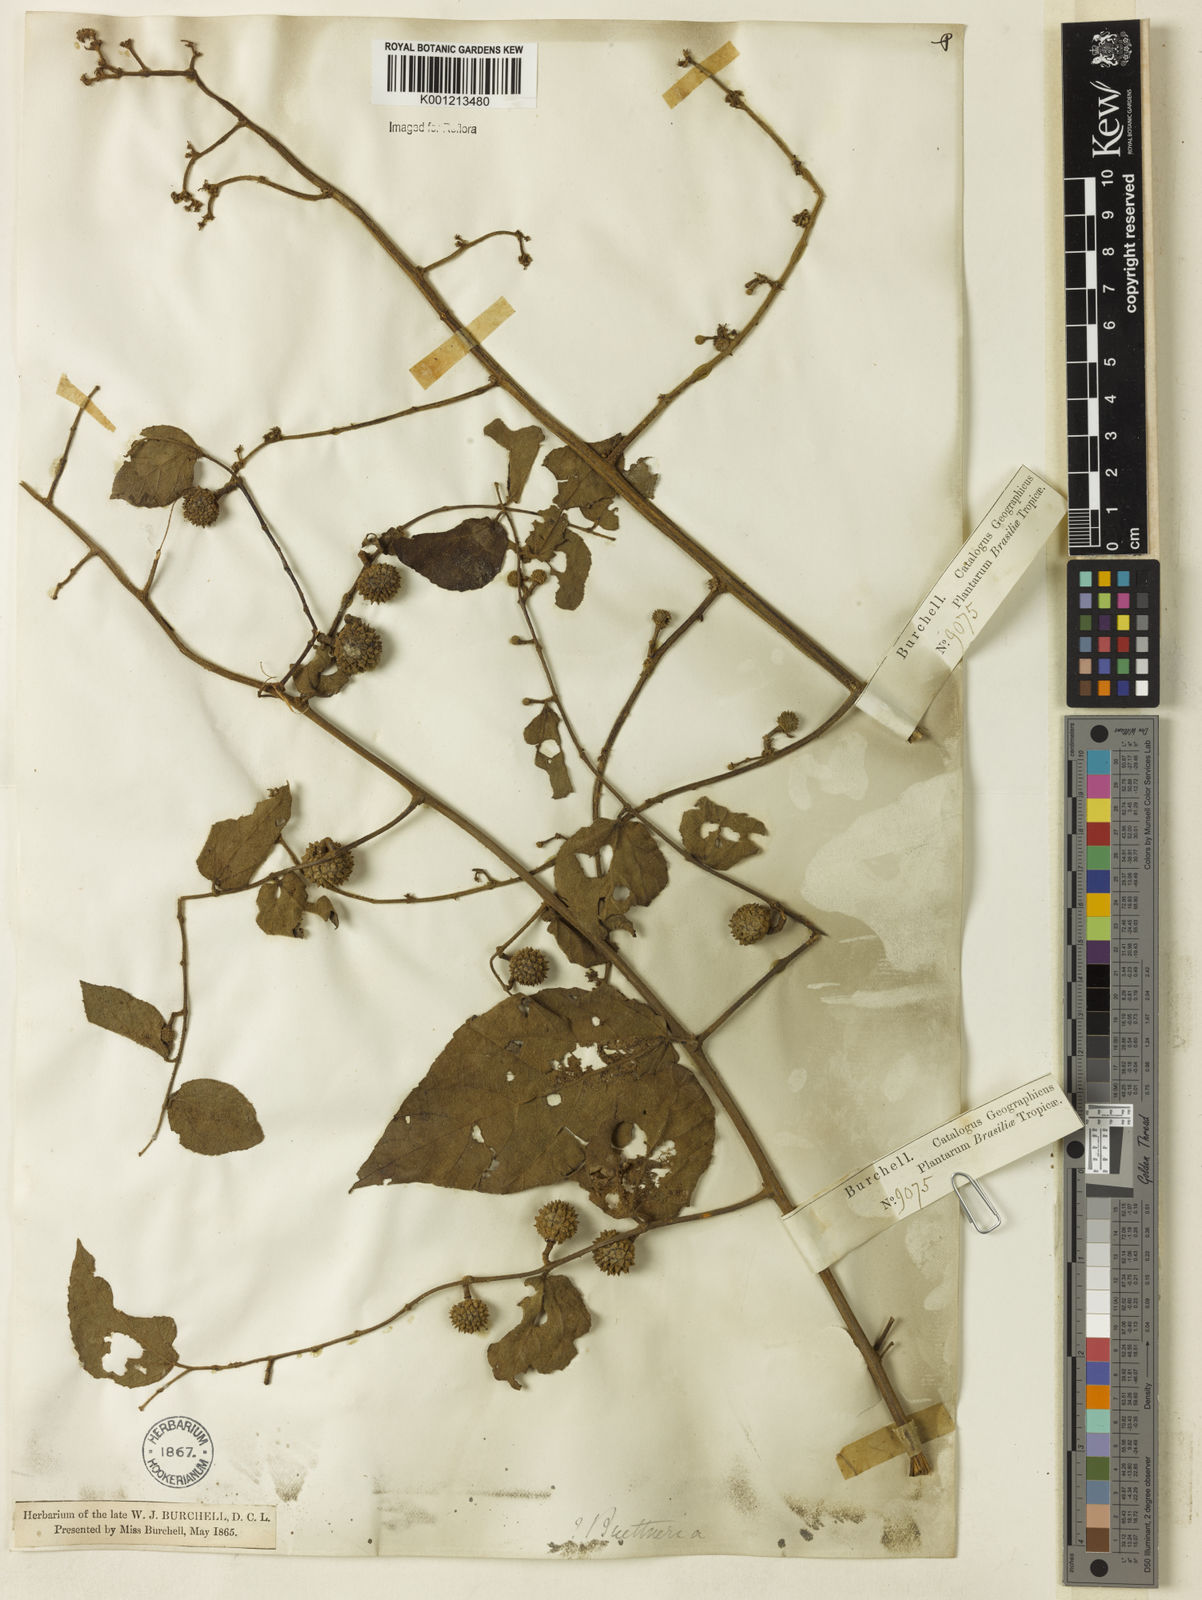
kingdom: Plantae
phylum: Tracheophyta
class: Magnoliopsida
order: Malvales
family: Malvaceae
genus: Byttneria
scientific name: Byttneria divaricata
